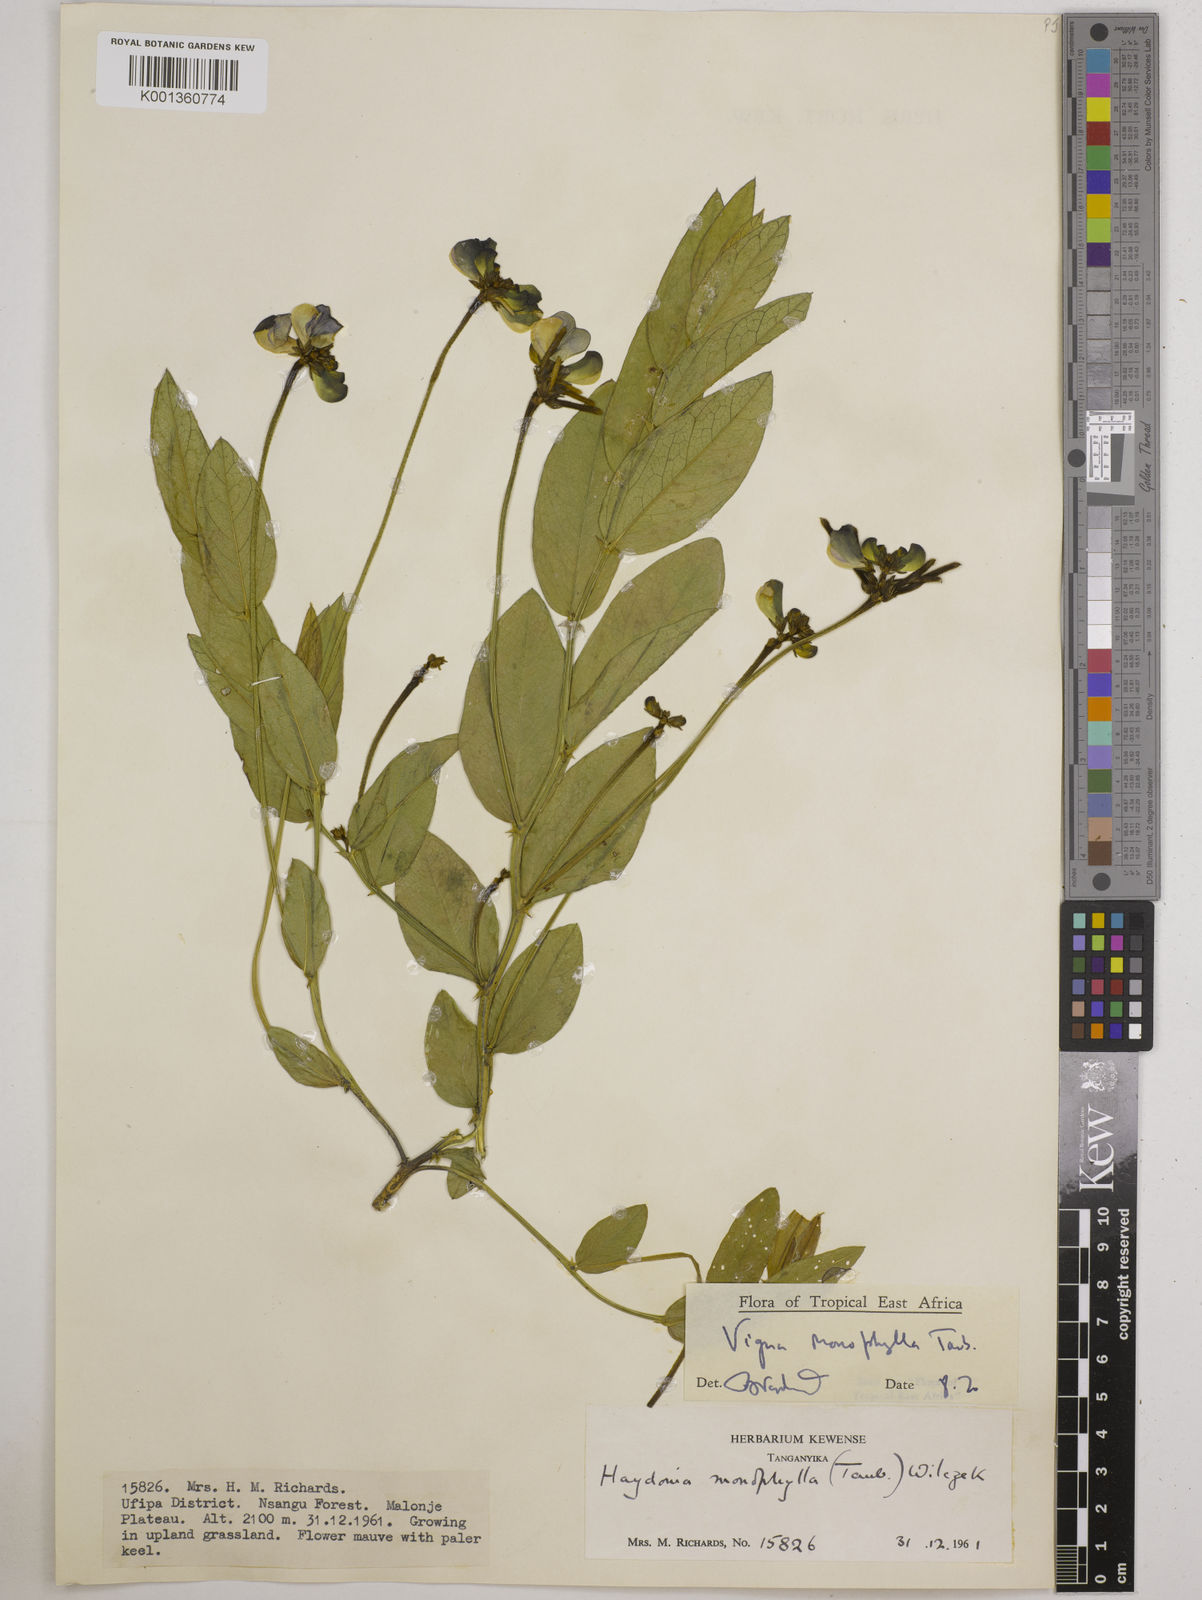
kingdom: Plantae
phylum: Tracheophyta
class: Magnoliopsida
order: Fabales
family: Fabaceae
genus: Vigna
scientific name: Vigna monophylla
